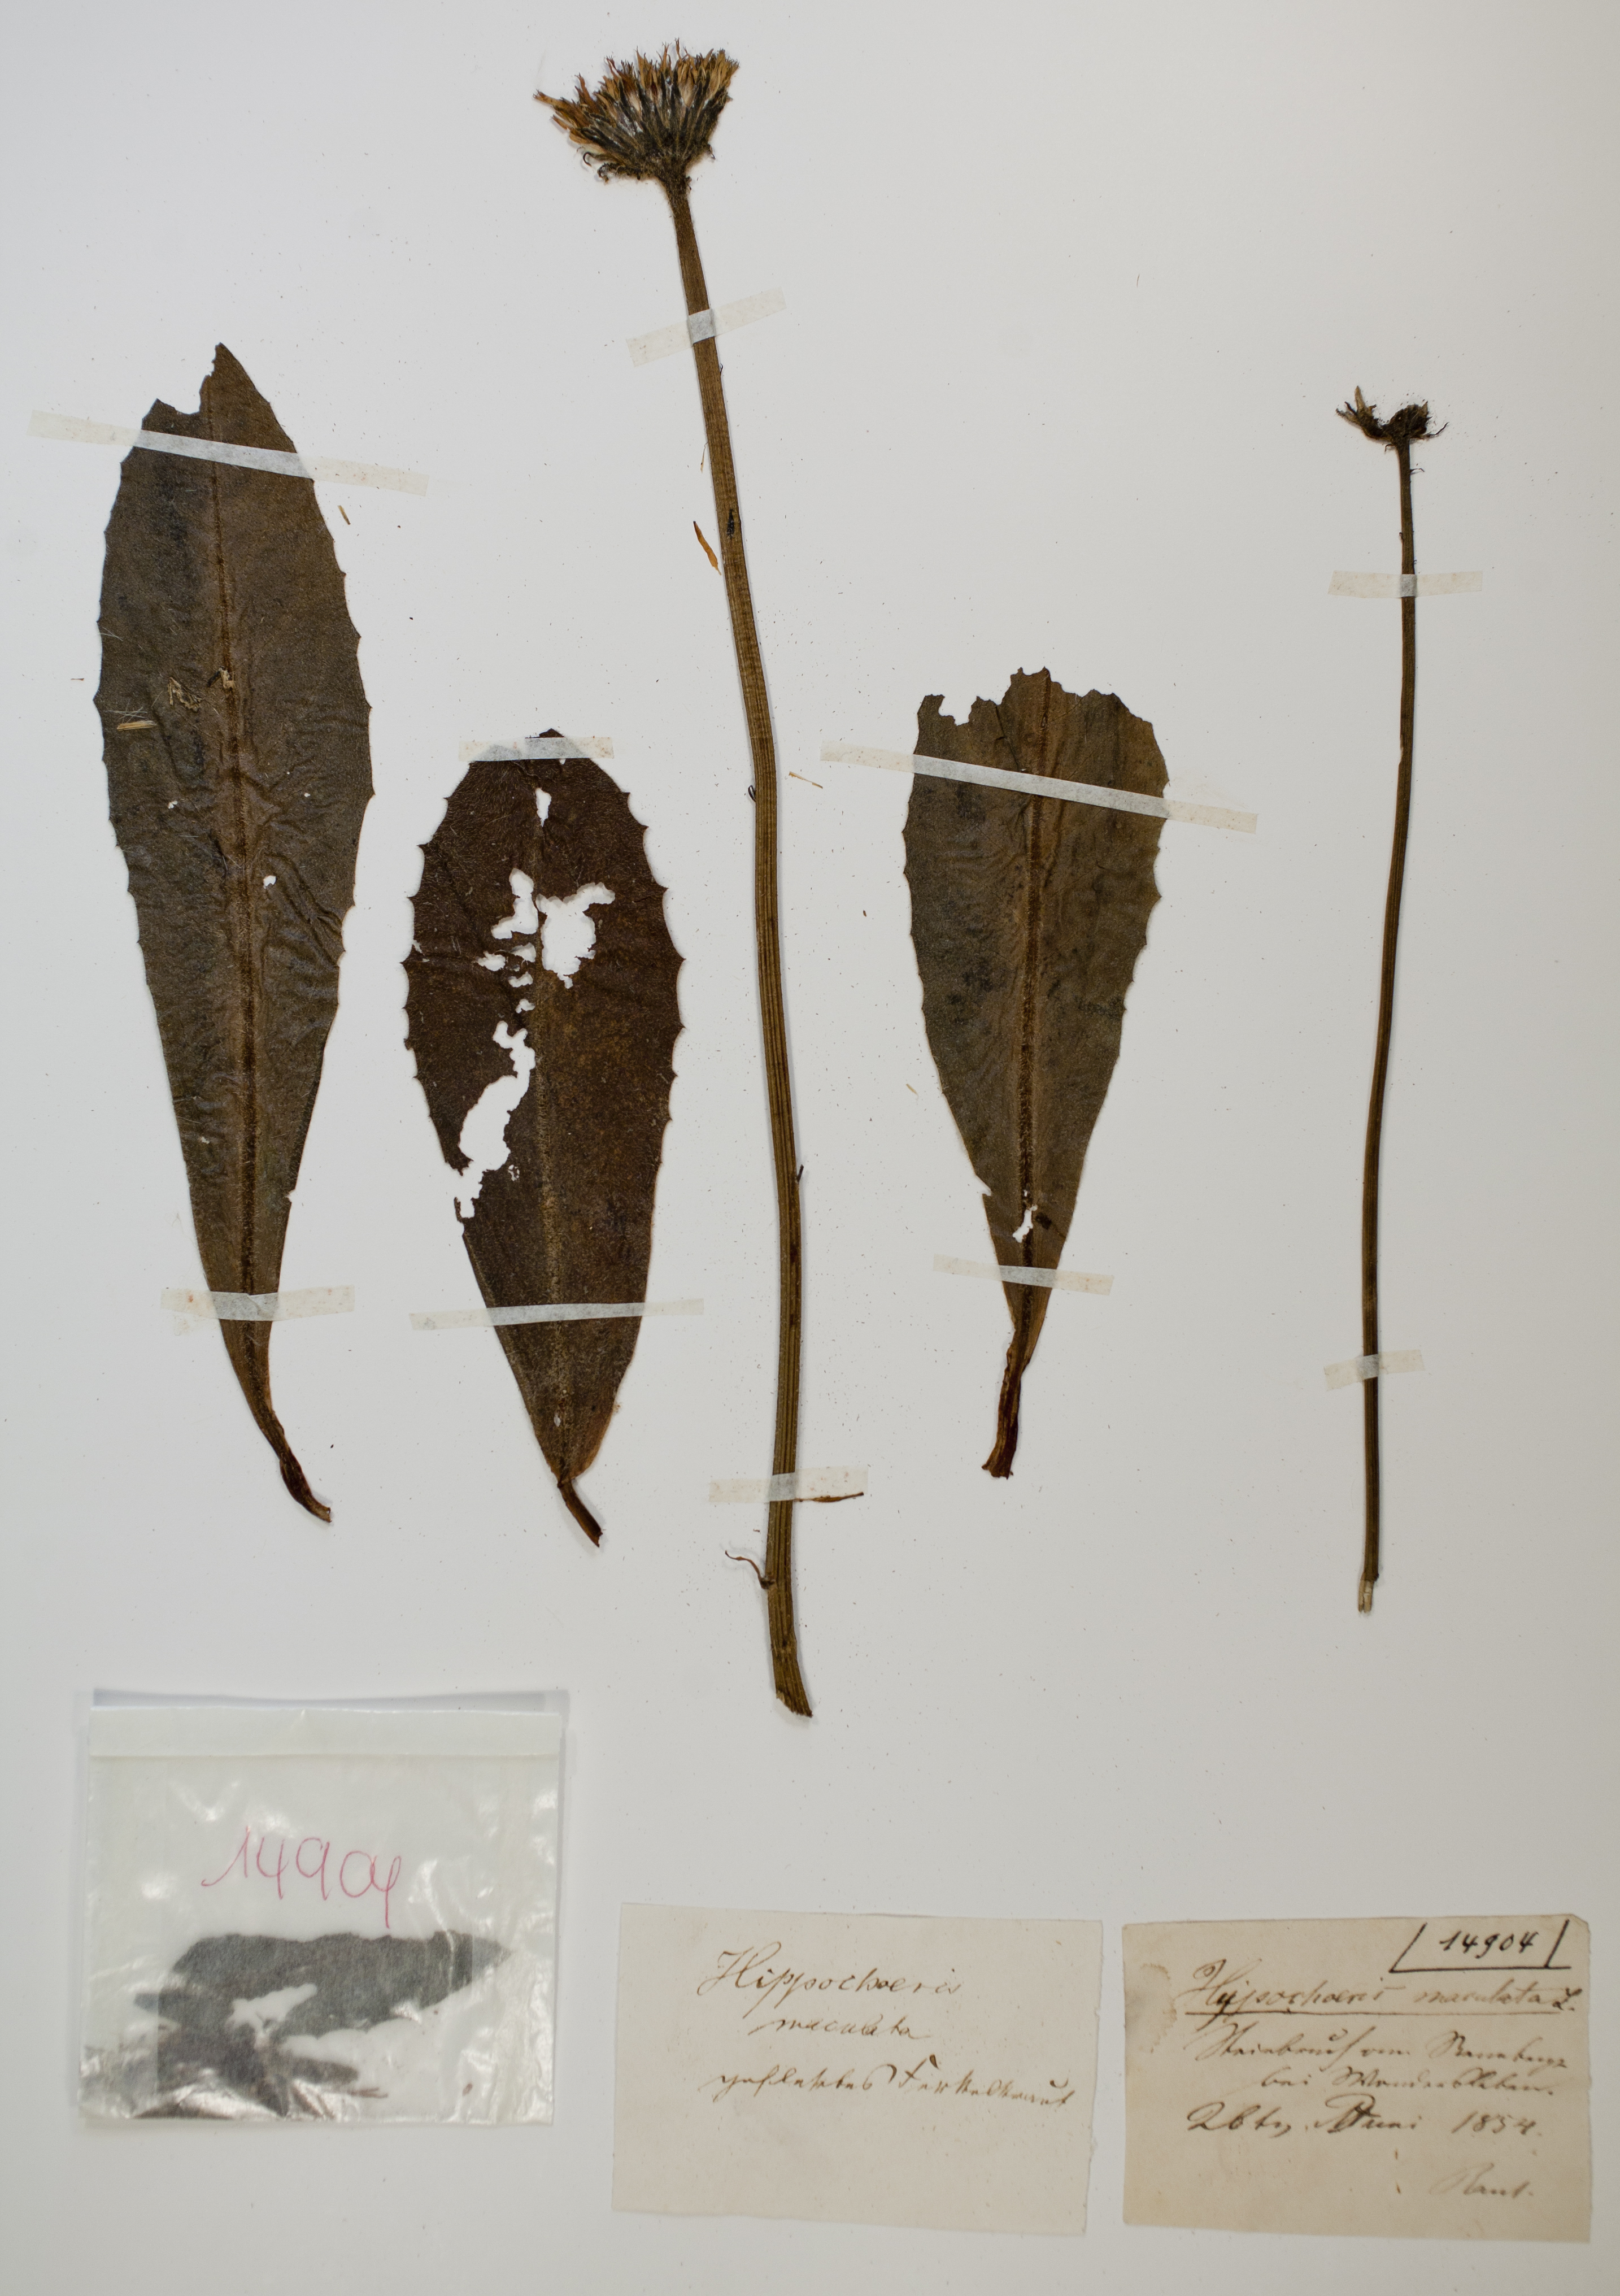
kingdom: Plantae
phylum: Tracheophyta
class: Magnoliopsida
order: Asterales
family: Asteraceae
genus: Trommsdorffia
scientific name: Trommsdorffia maculata
